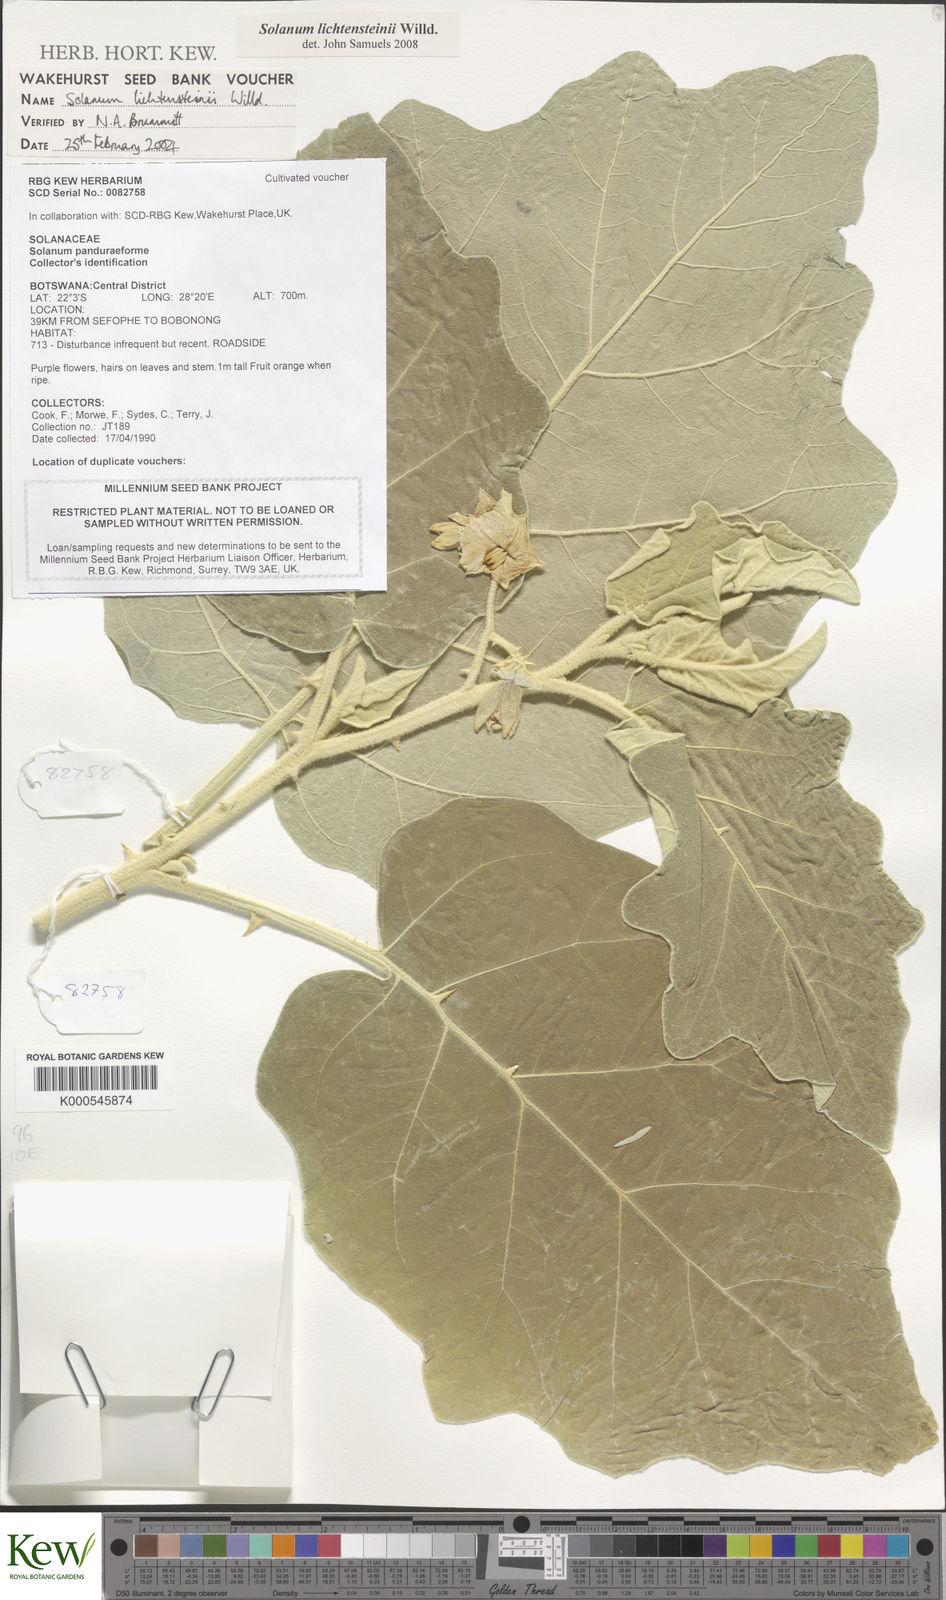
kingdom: Plantae
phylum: Tracheophyta
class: Magnoliopsida
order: Solanales
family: Solanaceae
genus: Solanum
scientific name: Solanum lichtensteinii
